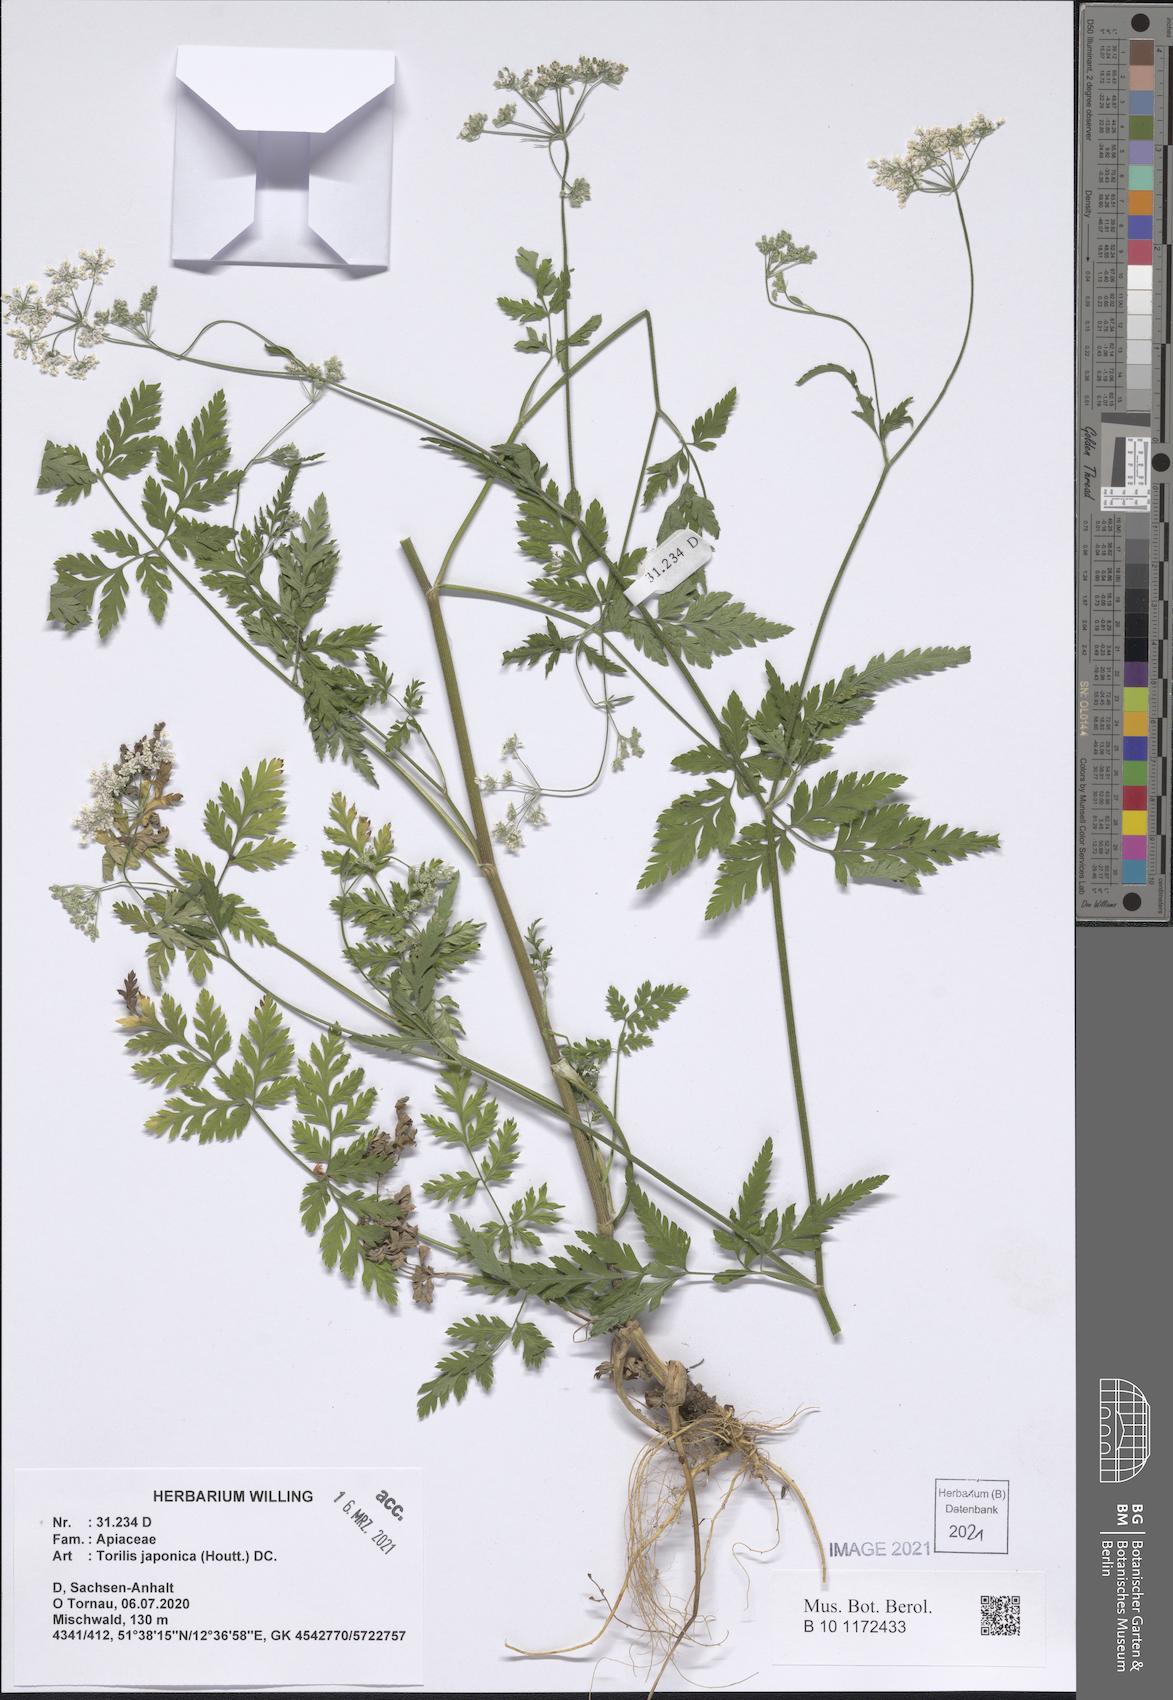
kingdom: Plantae
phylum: Tracheophyta
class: Magnoliopsida
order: Apiales
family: Apiaceae
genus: Torilis
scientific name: Torilis japonica
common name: Upright hedge-parsley
